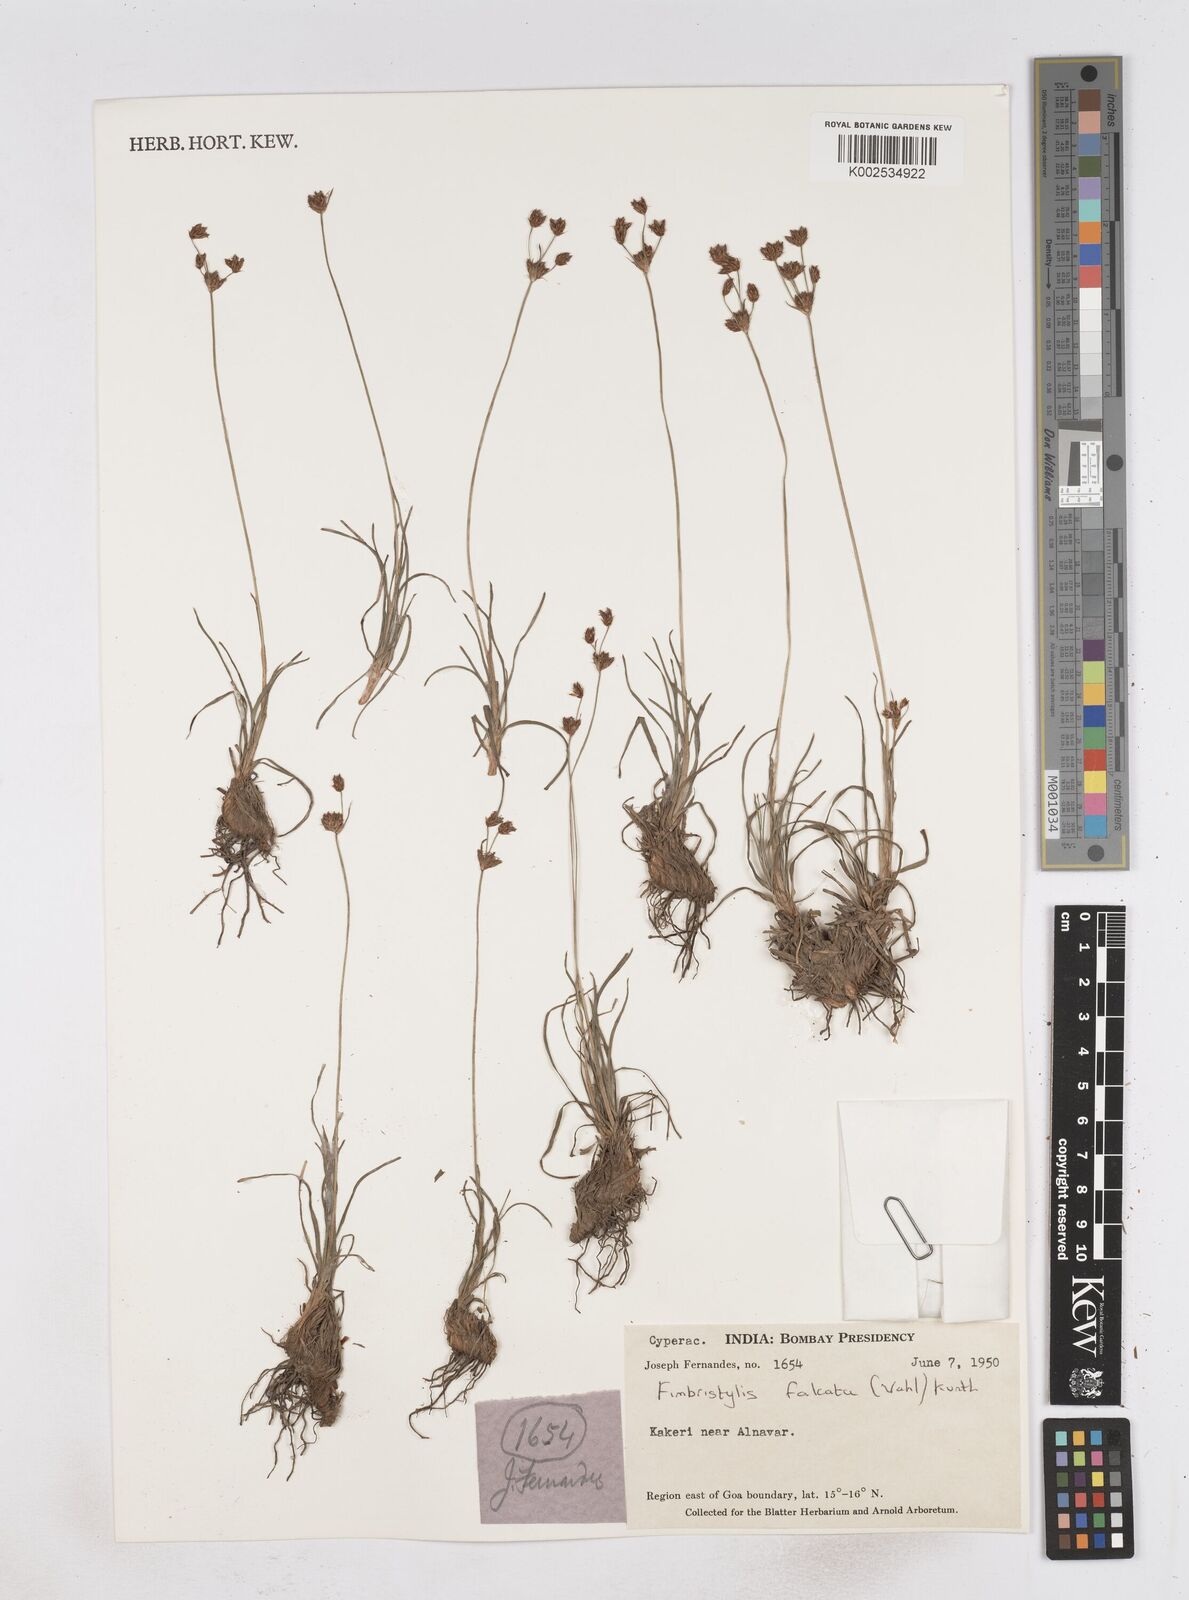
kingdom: Plantae
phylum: Tracheophyta
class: Liliopsida
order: Poales
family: Cyperaceae
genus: Fimbristylis
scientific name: Fimbristylis falcata
